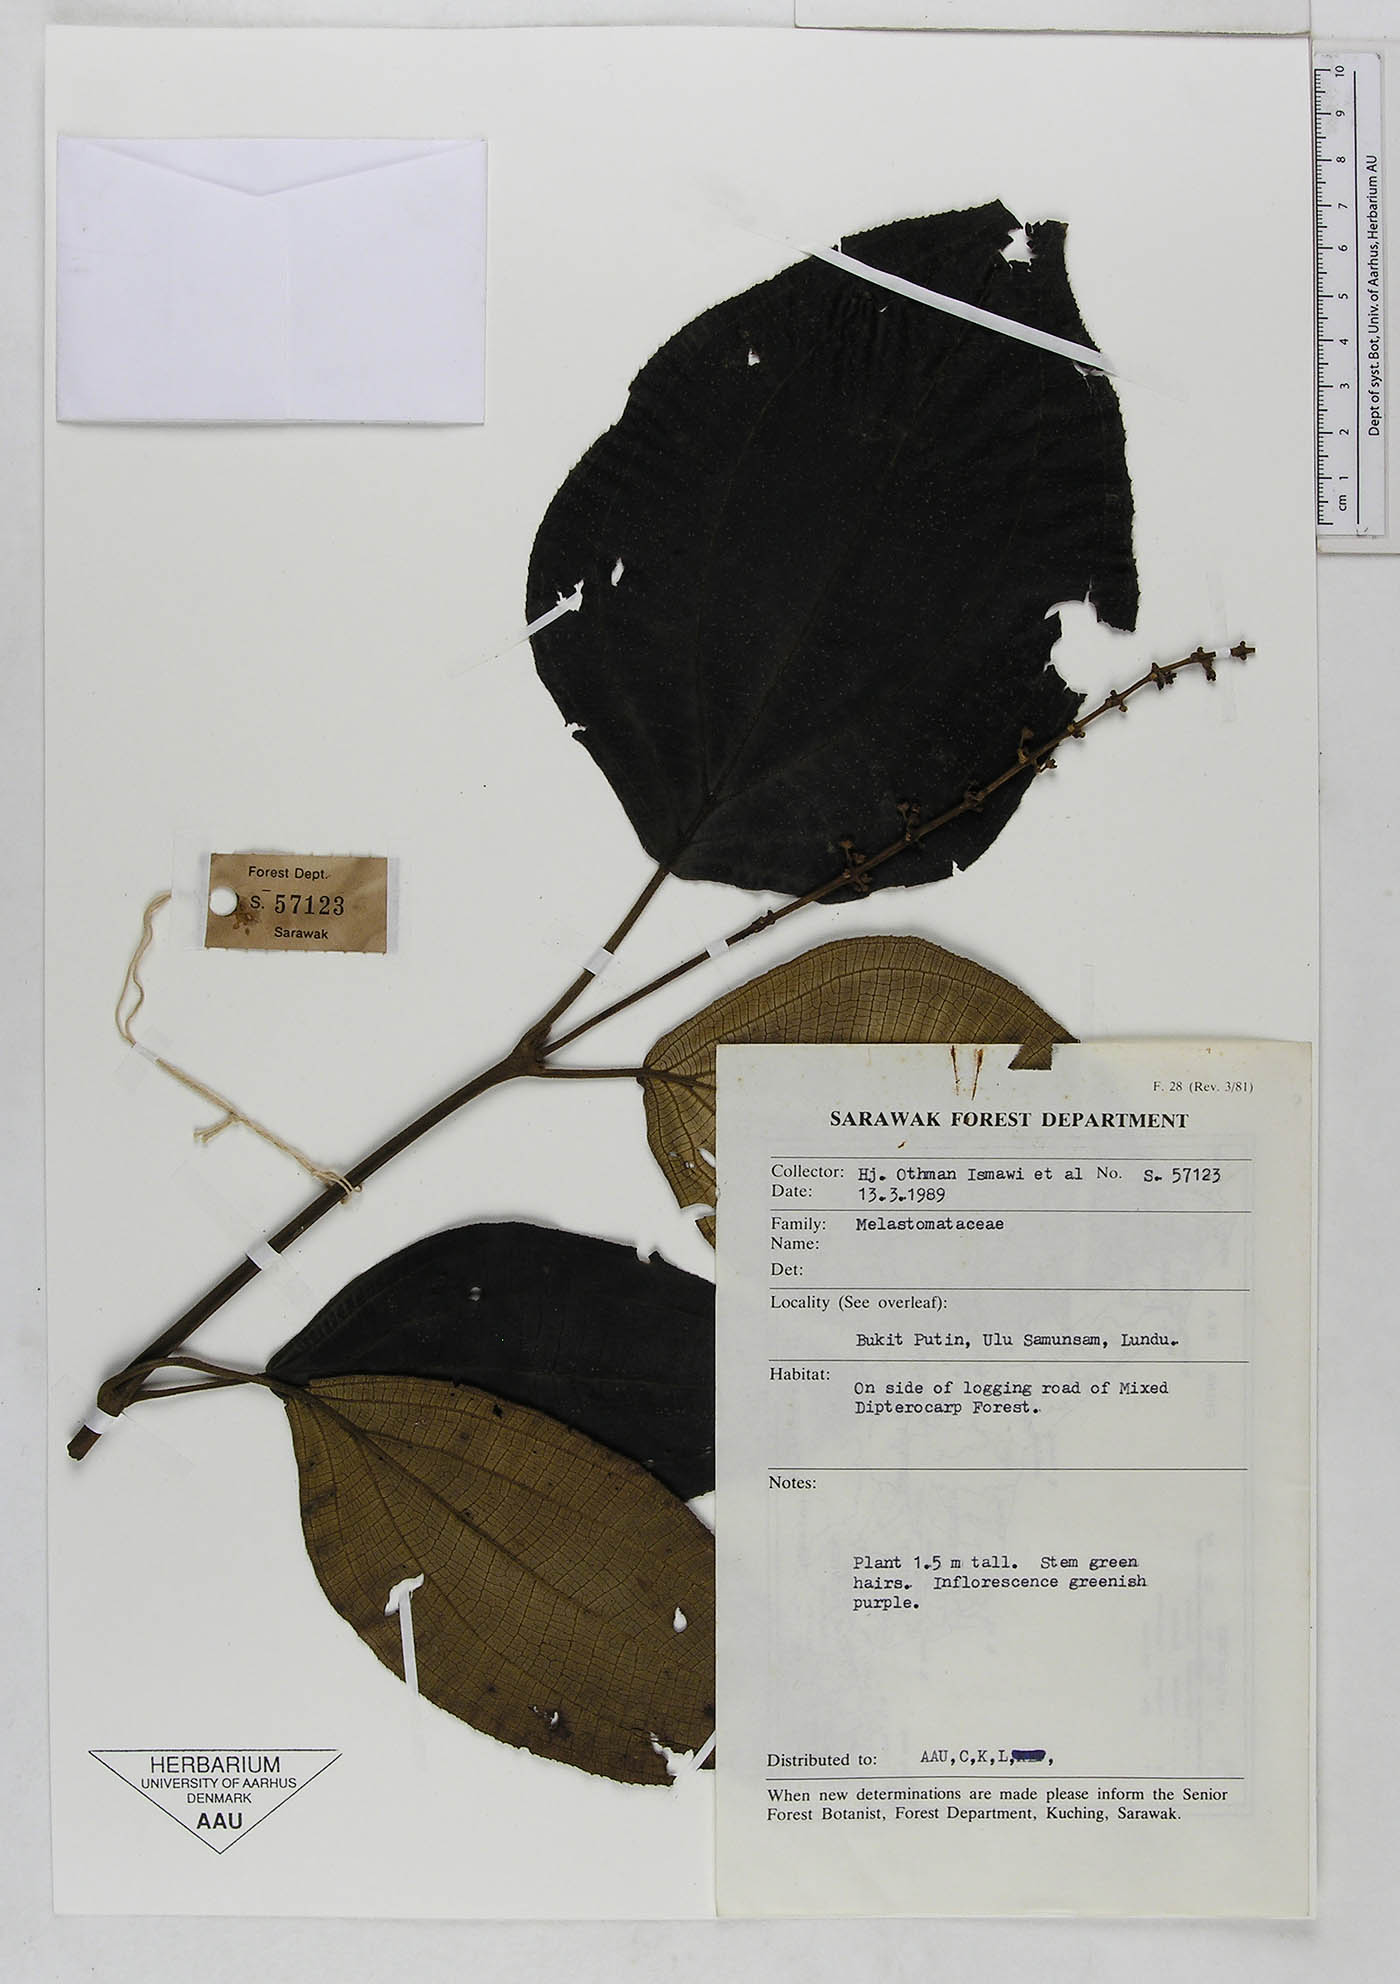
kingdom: Plantae
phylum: Tracheophyta
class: Magnoliopsida
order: Myrtales
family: Melastomataceae
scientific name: Melastomataceae
